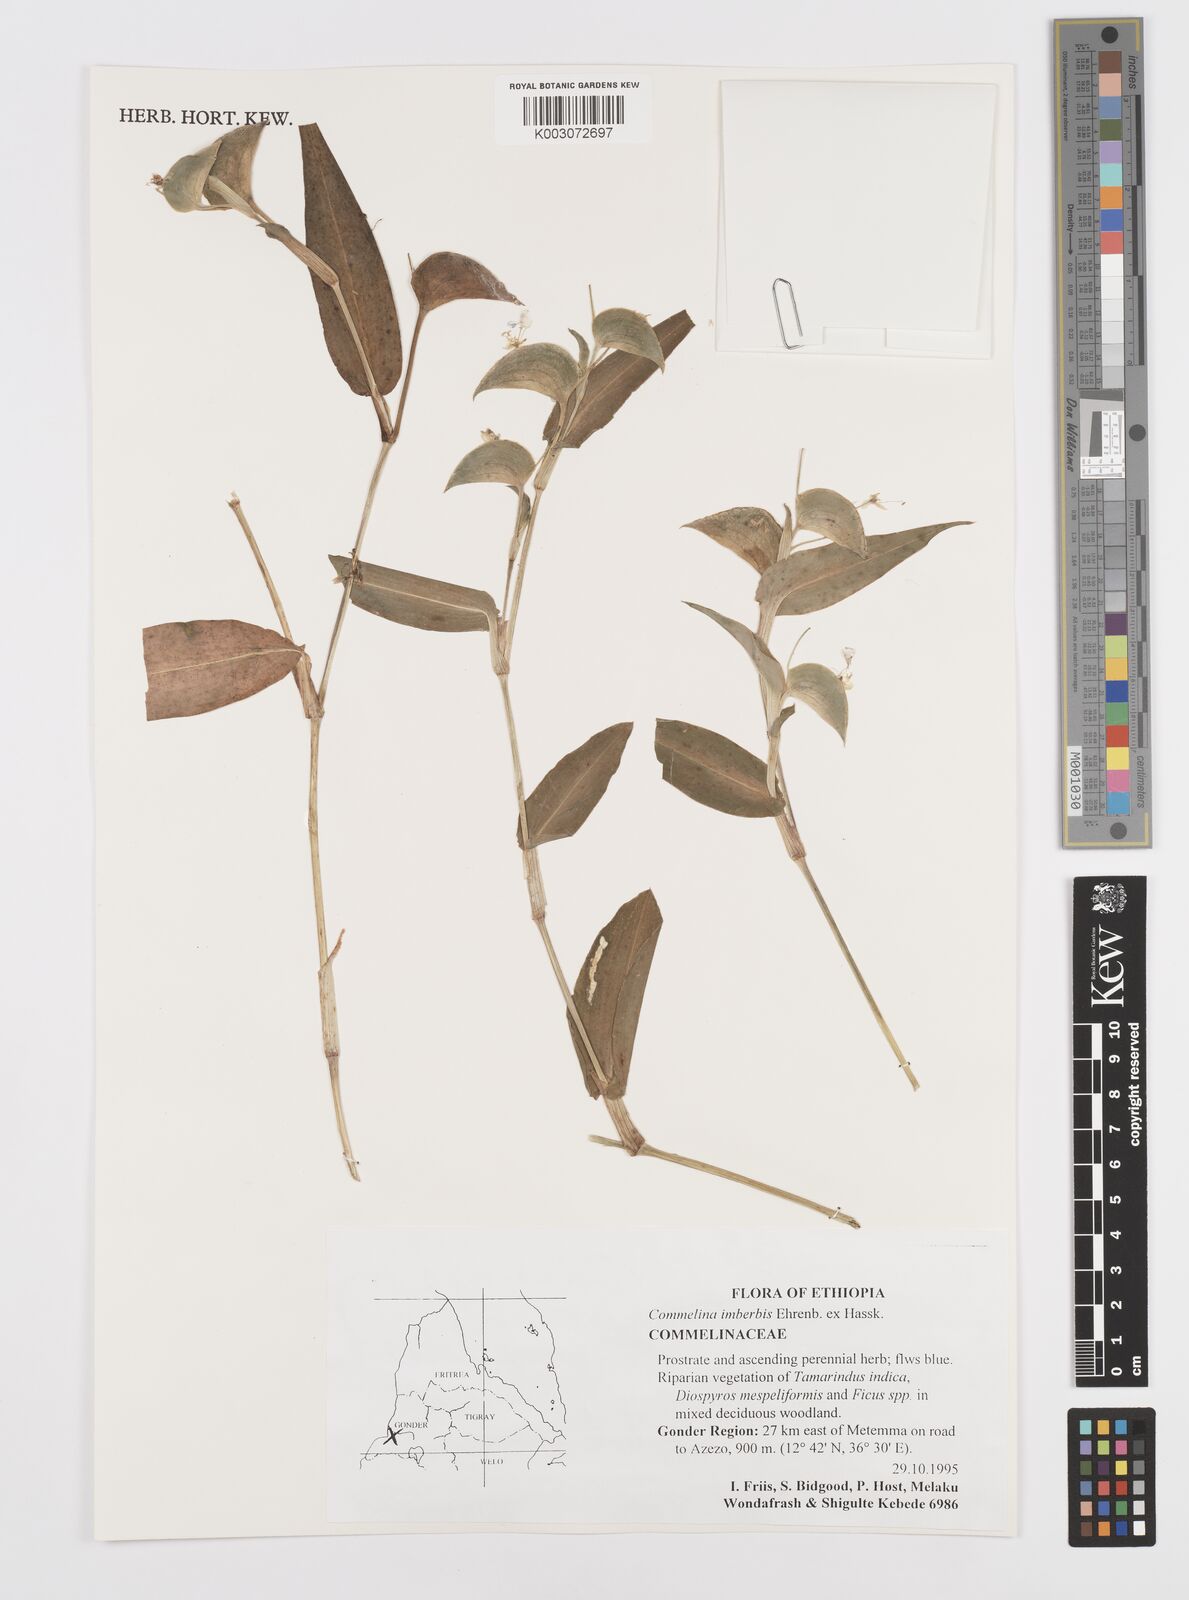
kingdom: Plantae
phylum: Tracheophyta
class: Liliopsida
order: Commelinales
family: Commelinaceae
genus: Commelina
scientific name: Commelina imberbis
